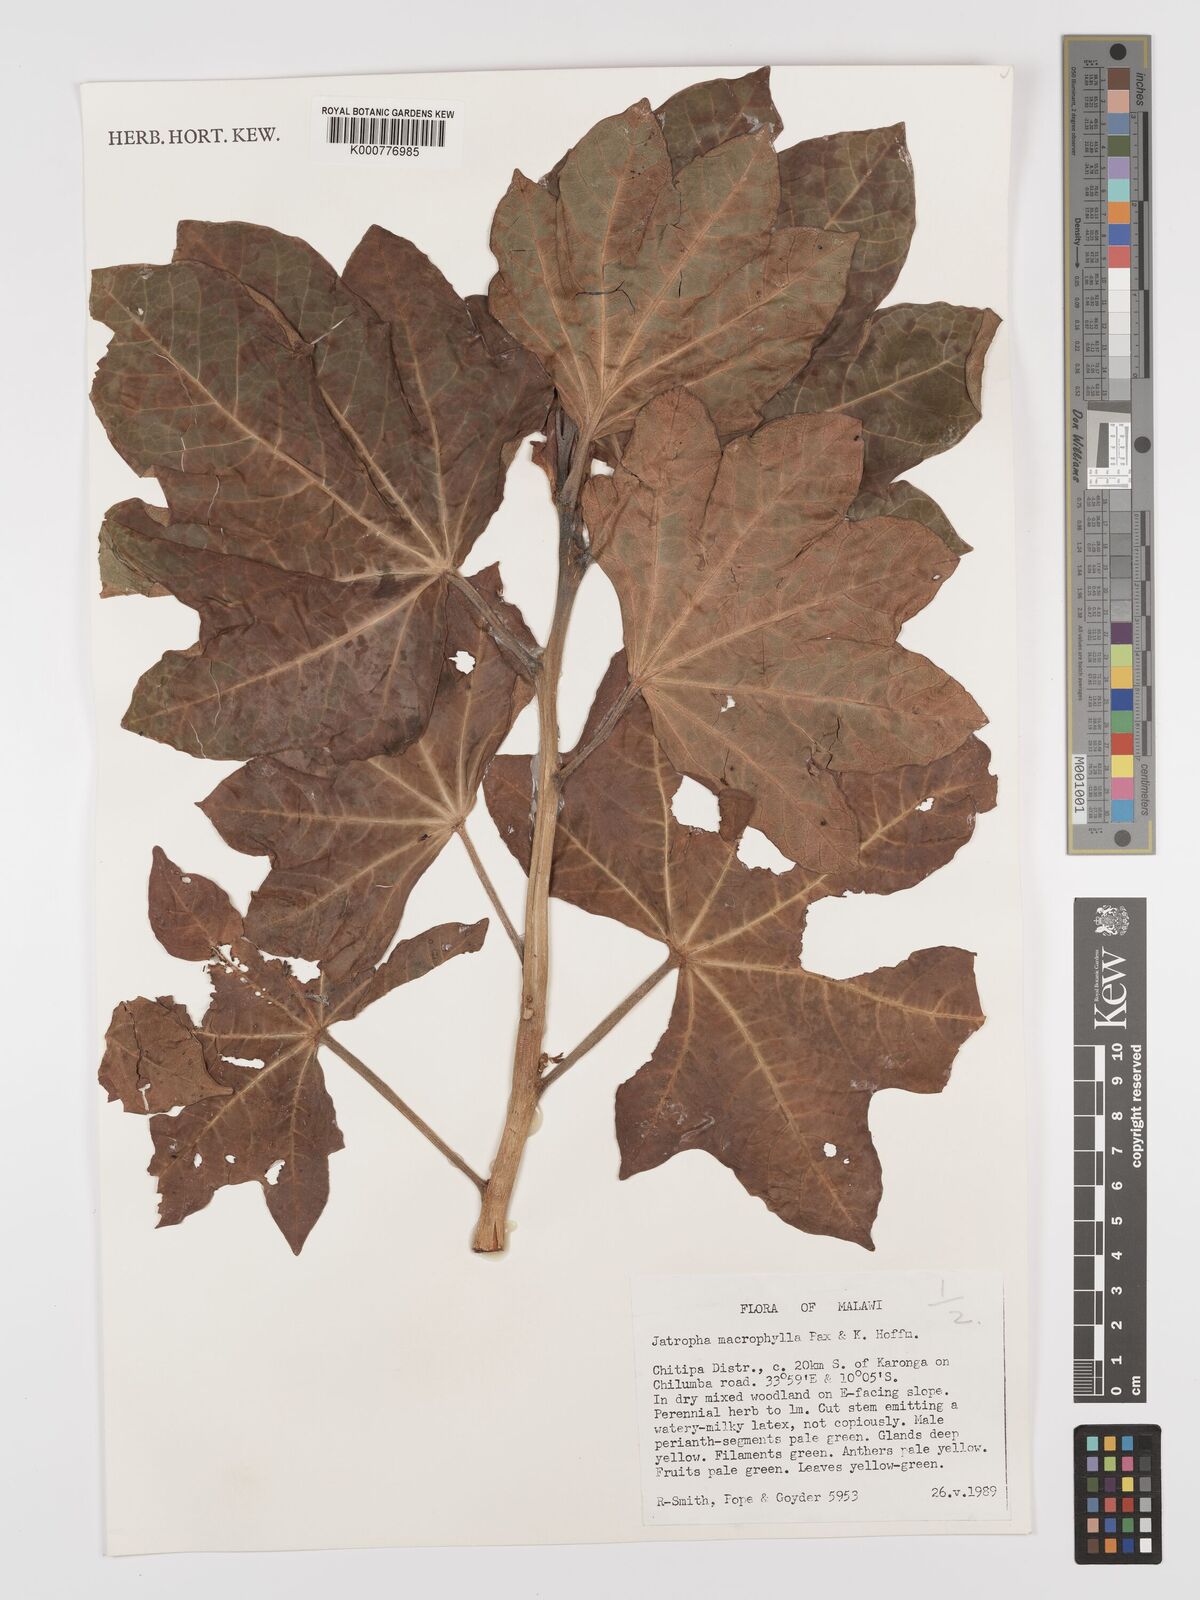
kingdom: Plantae
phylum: Tracheophyta
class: Magnoliopsida
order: Malpighiales
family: Euphorbiaceae
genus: Jatropha
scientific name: Jatropha macrophylla
